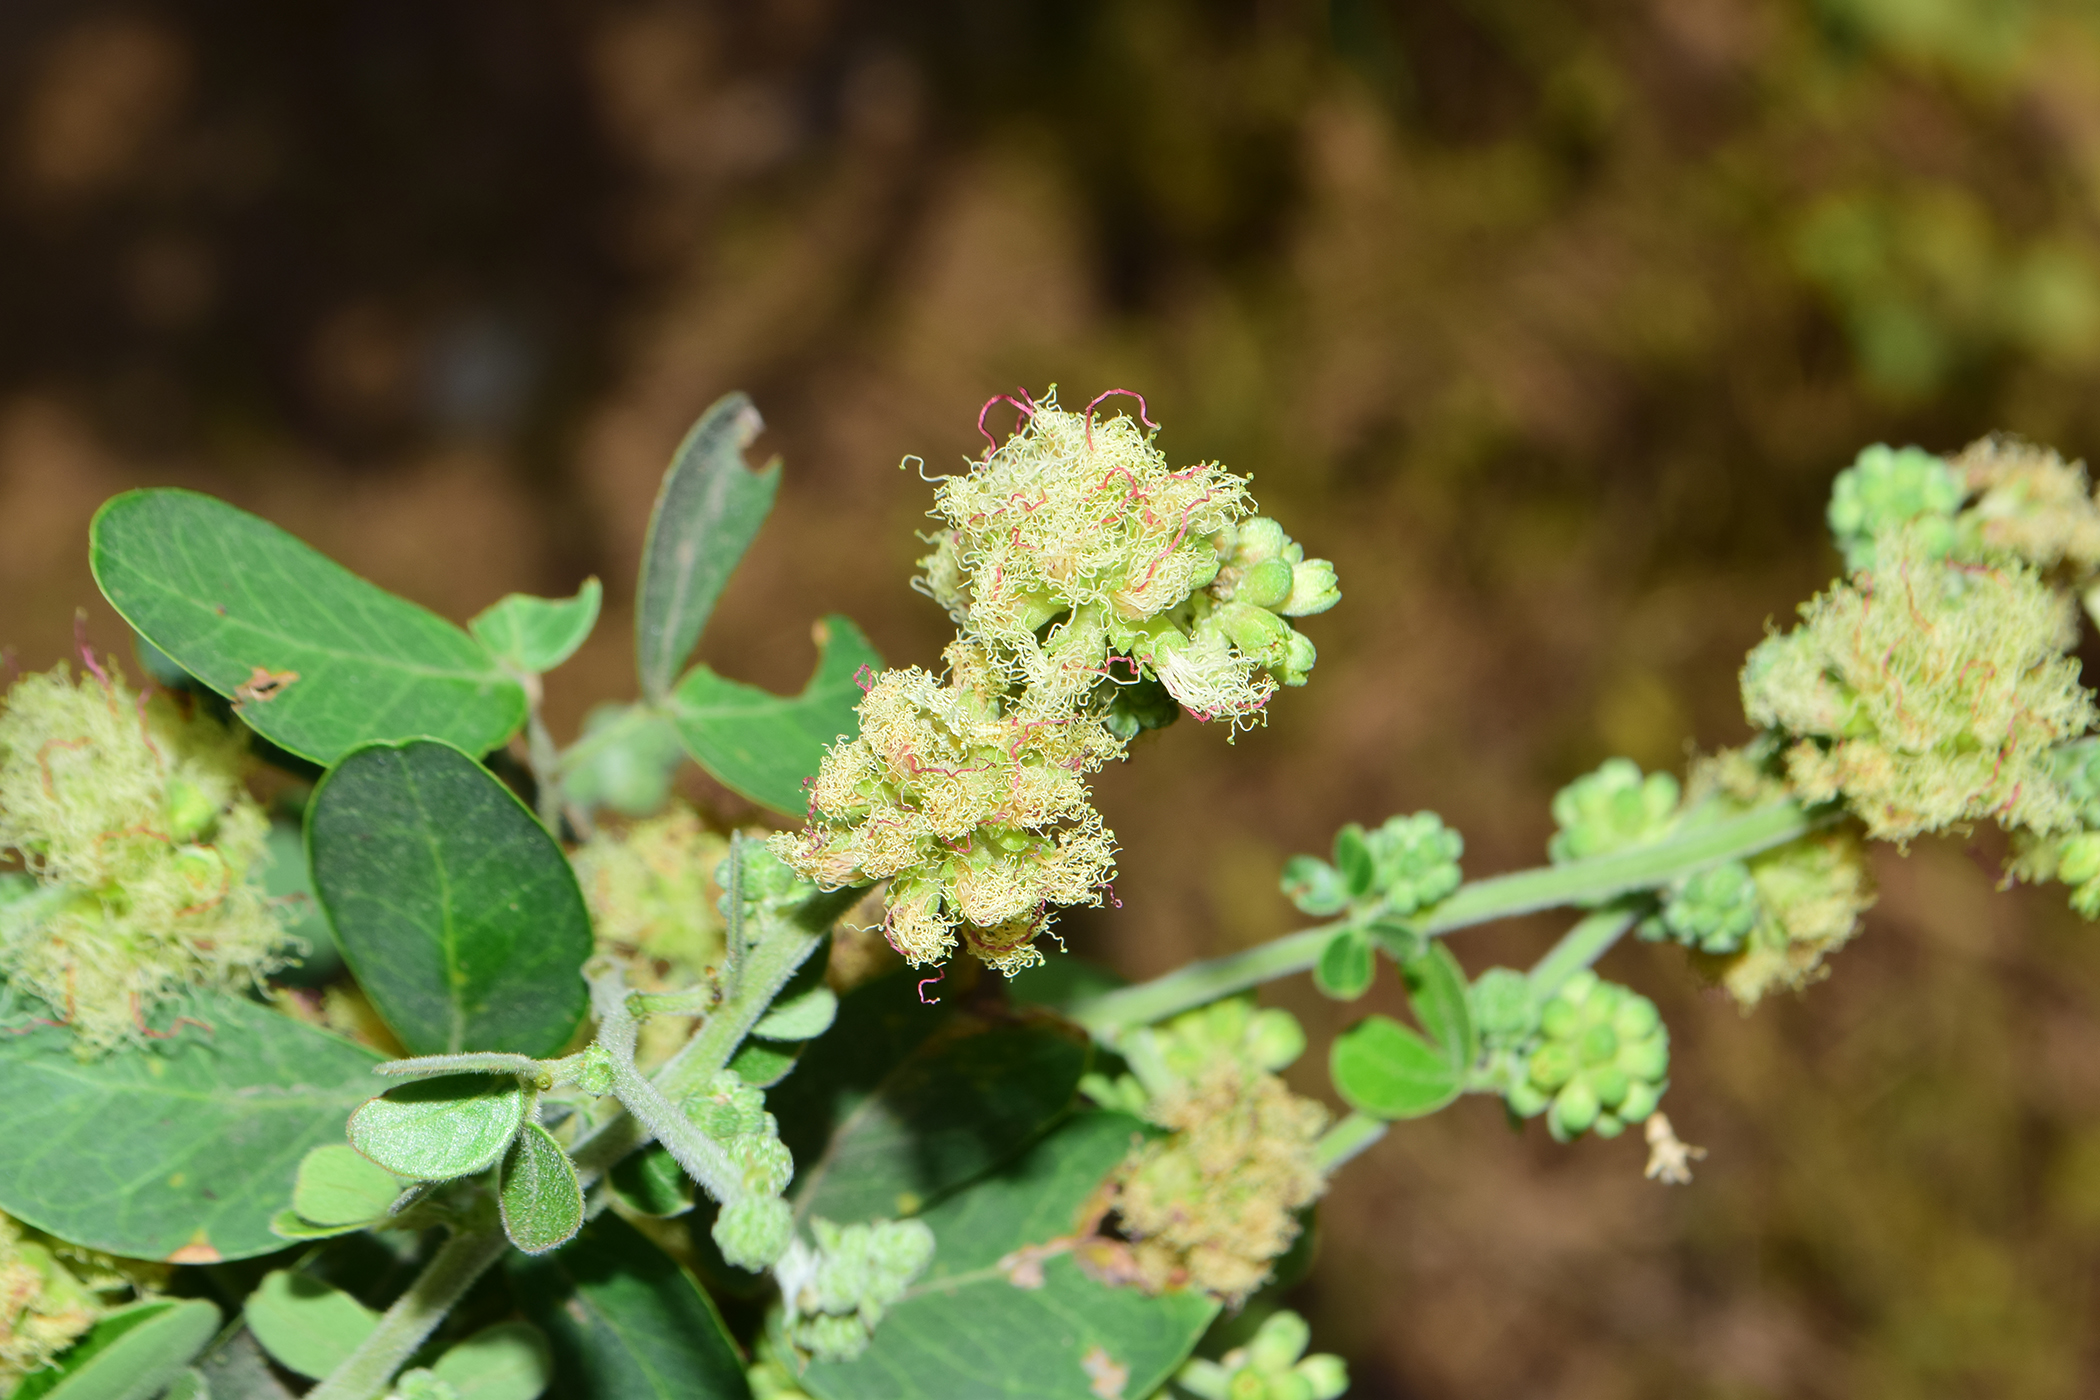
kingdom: Plantae
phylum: Tracheophyta
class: Magnoliopsida
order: Fabales
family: Fabaceae
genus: Pithecellobium
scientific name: Pithecellobium dulce
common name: Monkeypod
